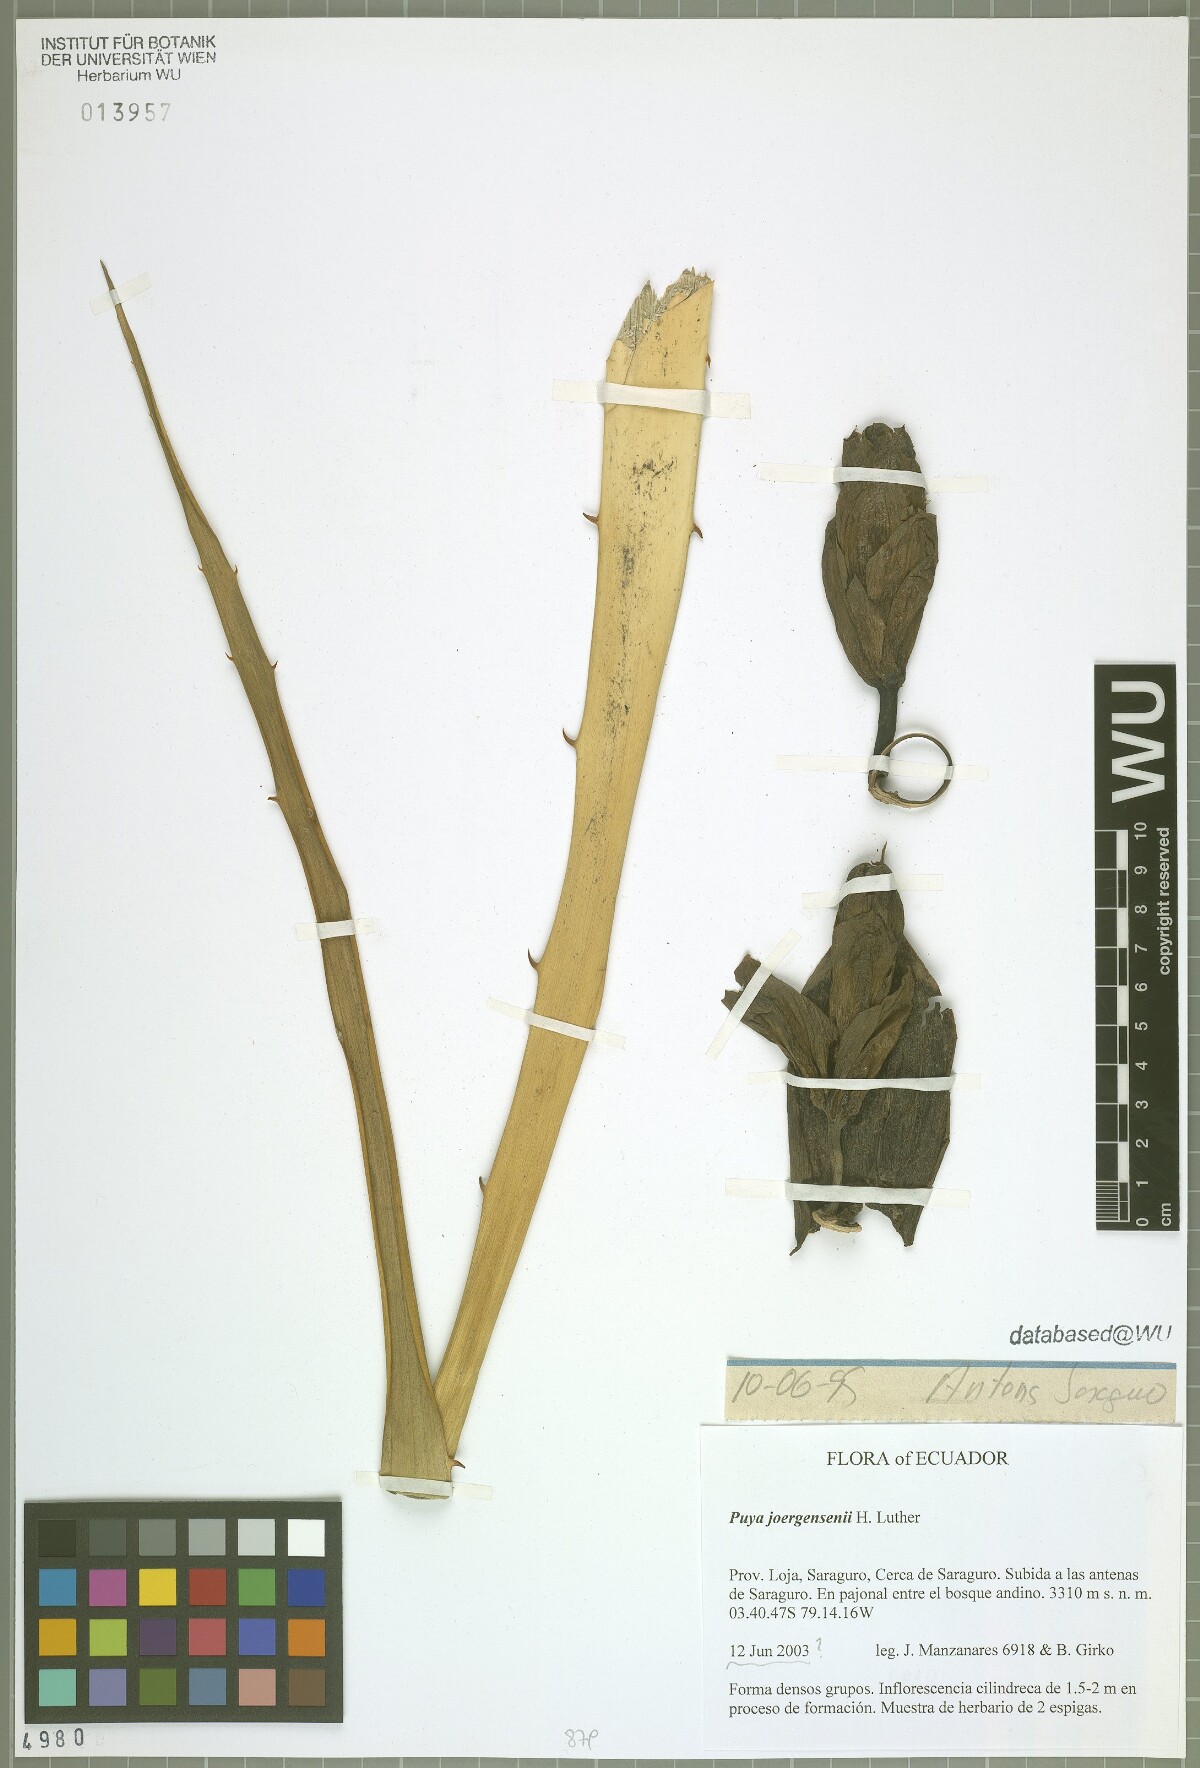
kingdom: Plantae
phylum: Tracheophyta
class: Liliopsida
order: Poales
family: Bromeliaceae
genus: Puya
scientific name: Puya joergensenii
